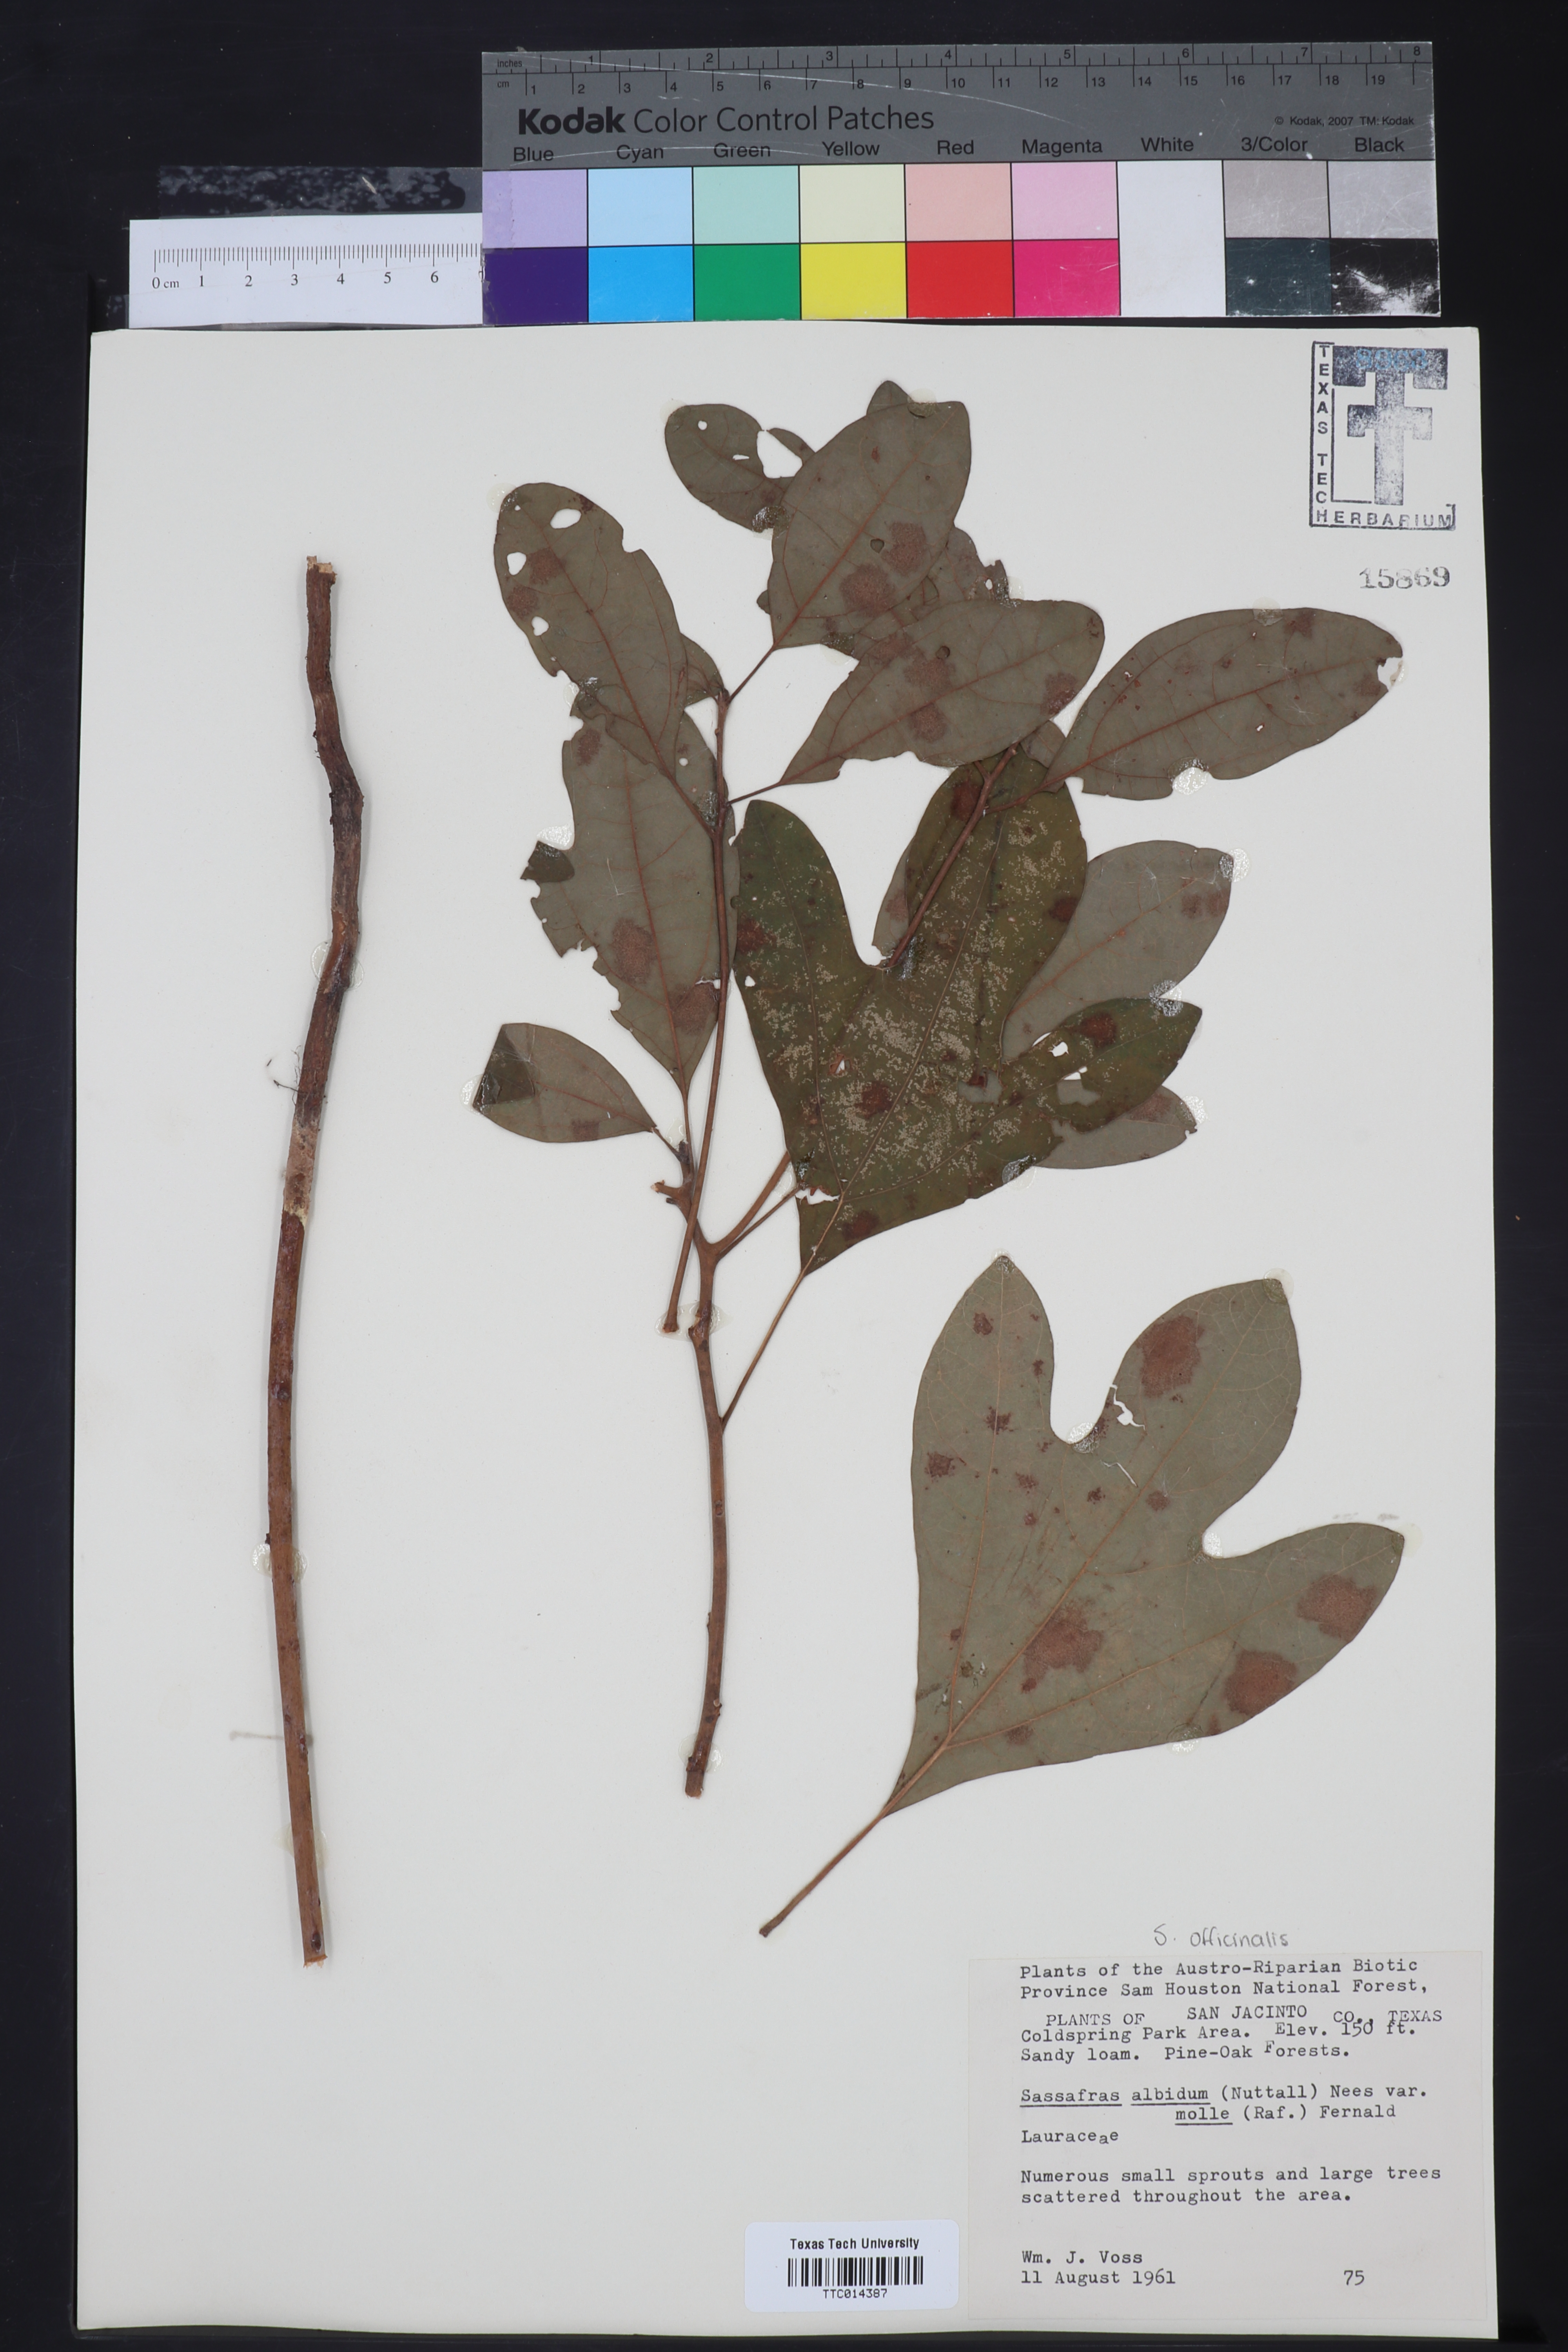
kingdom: Plantae
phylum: Tracheophyta
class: Magnoliopsida
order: Laurales
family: Lauraceae
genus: Sassafras
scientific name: Sassafras albidum
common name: Sassafras
